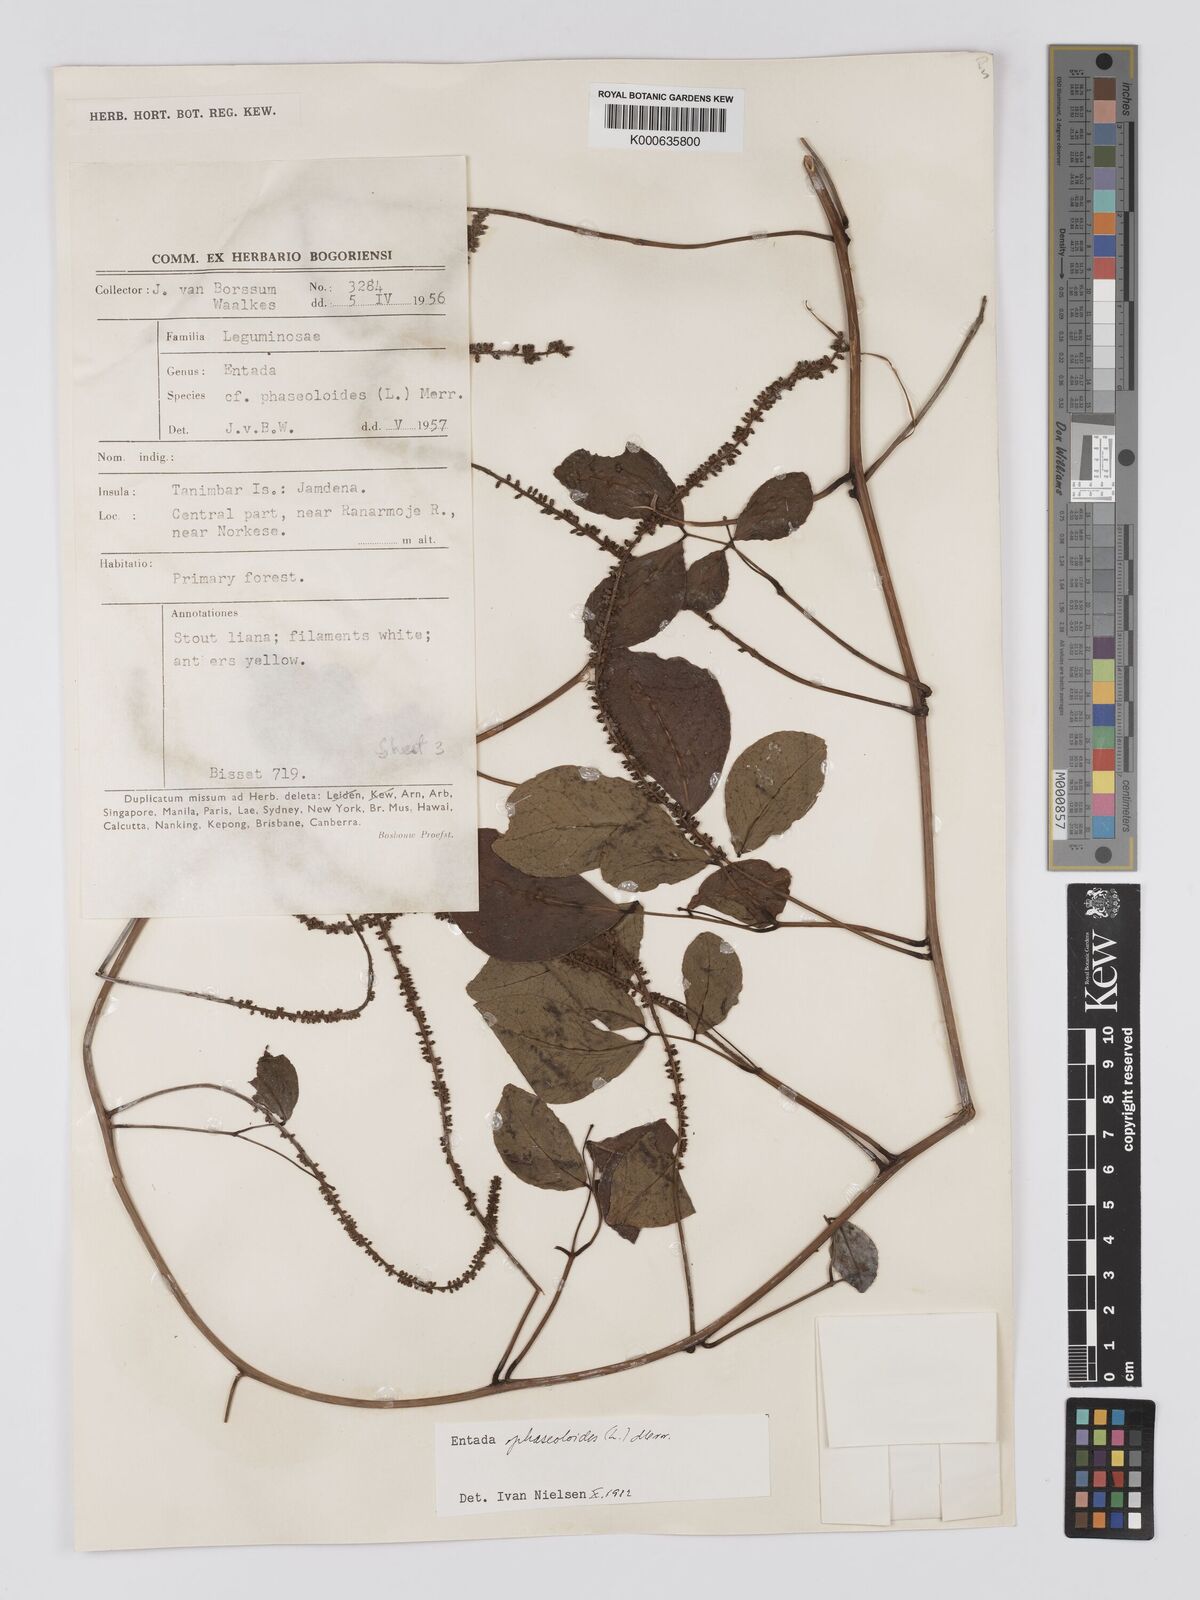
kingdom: Plantae
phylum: Tracheophyta
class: Magnoliopsida
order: Fabales
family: Fabaceae
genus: Entada
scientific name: Entada phaseoloides
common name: Matchbox-bean
